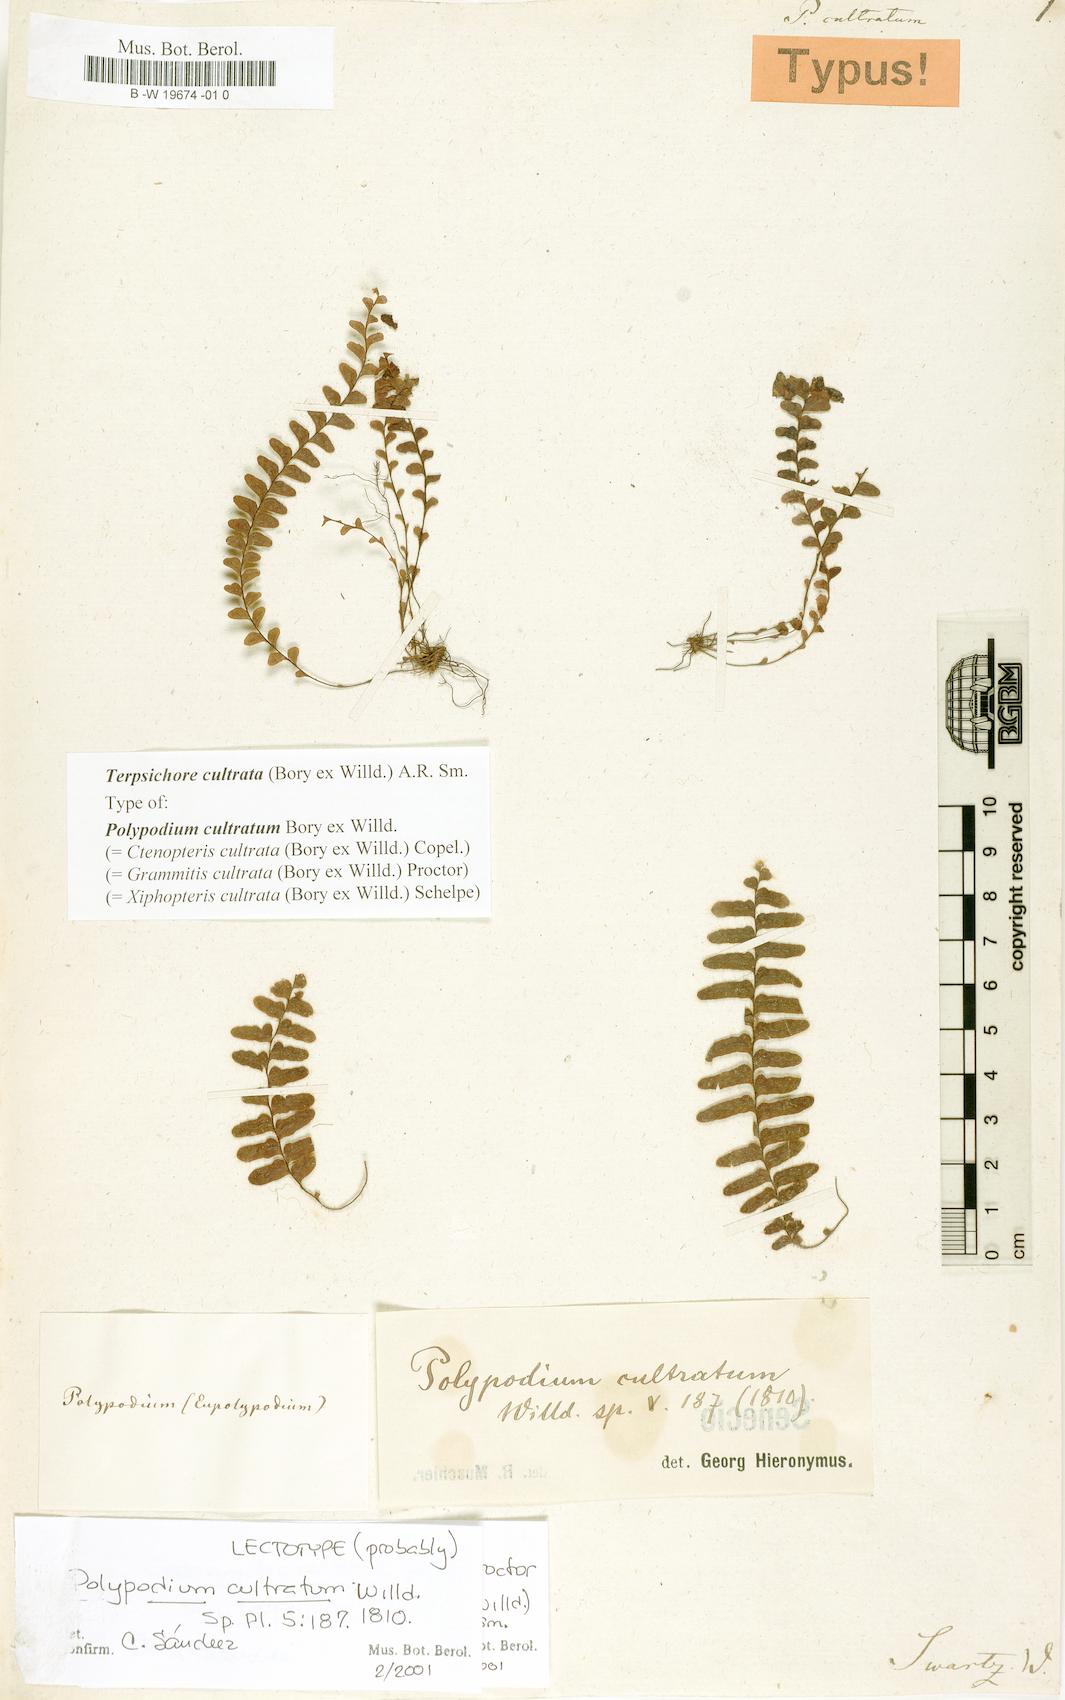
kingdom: Plantae
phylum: Tracheophyta
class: Polypodiopsida
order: Polypodiales
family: Polypodiaceae
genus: Alansmia
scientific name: Alansmia cultrata
